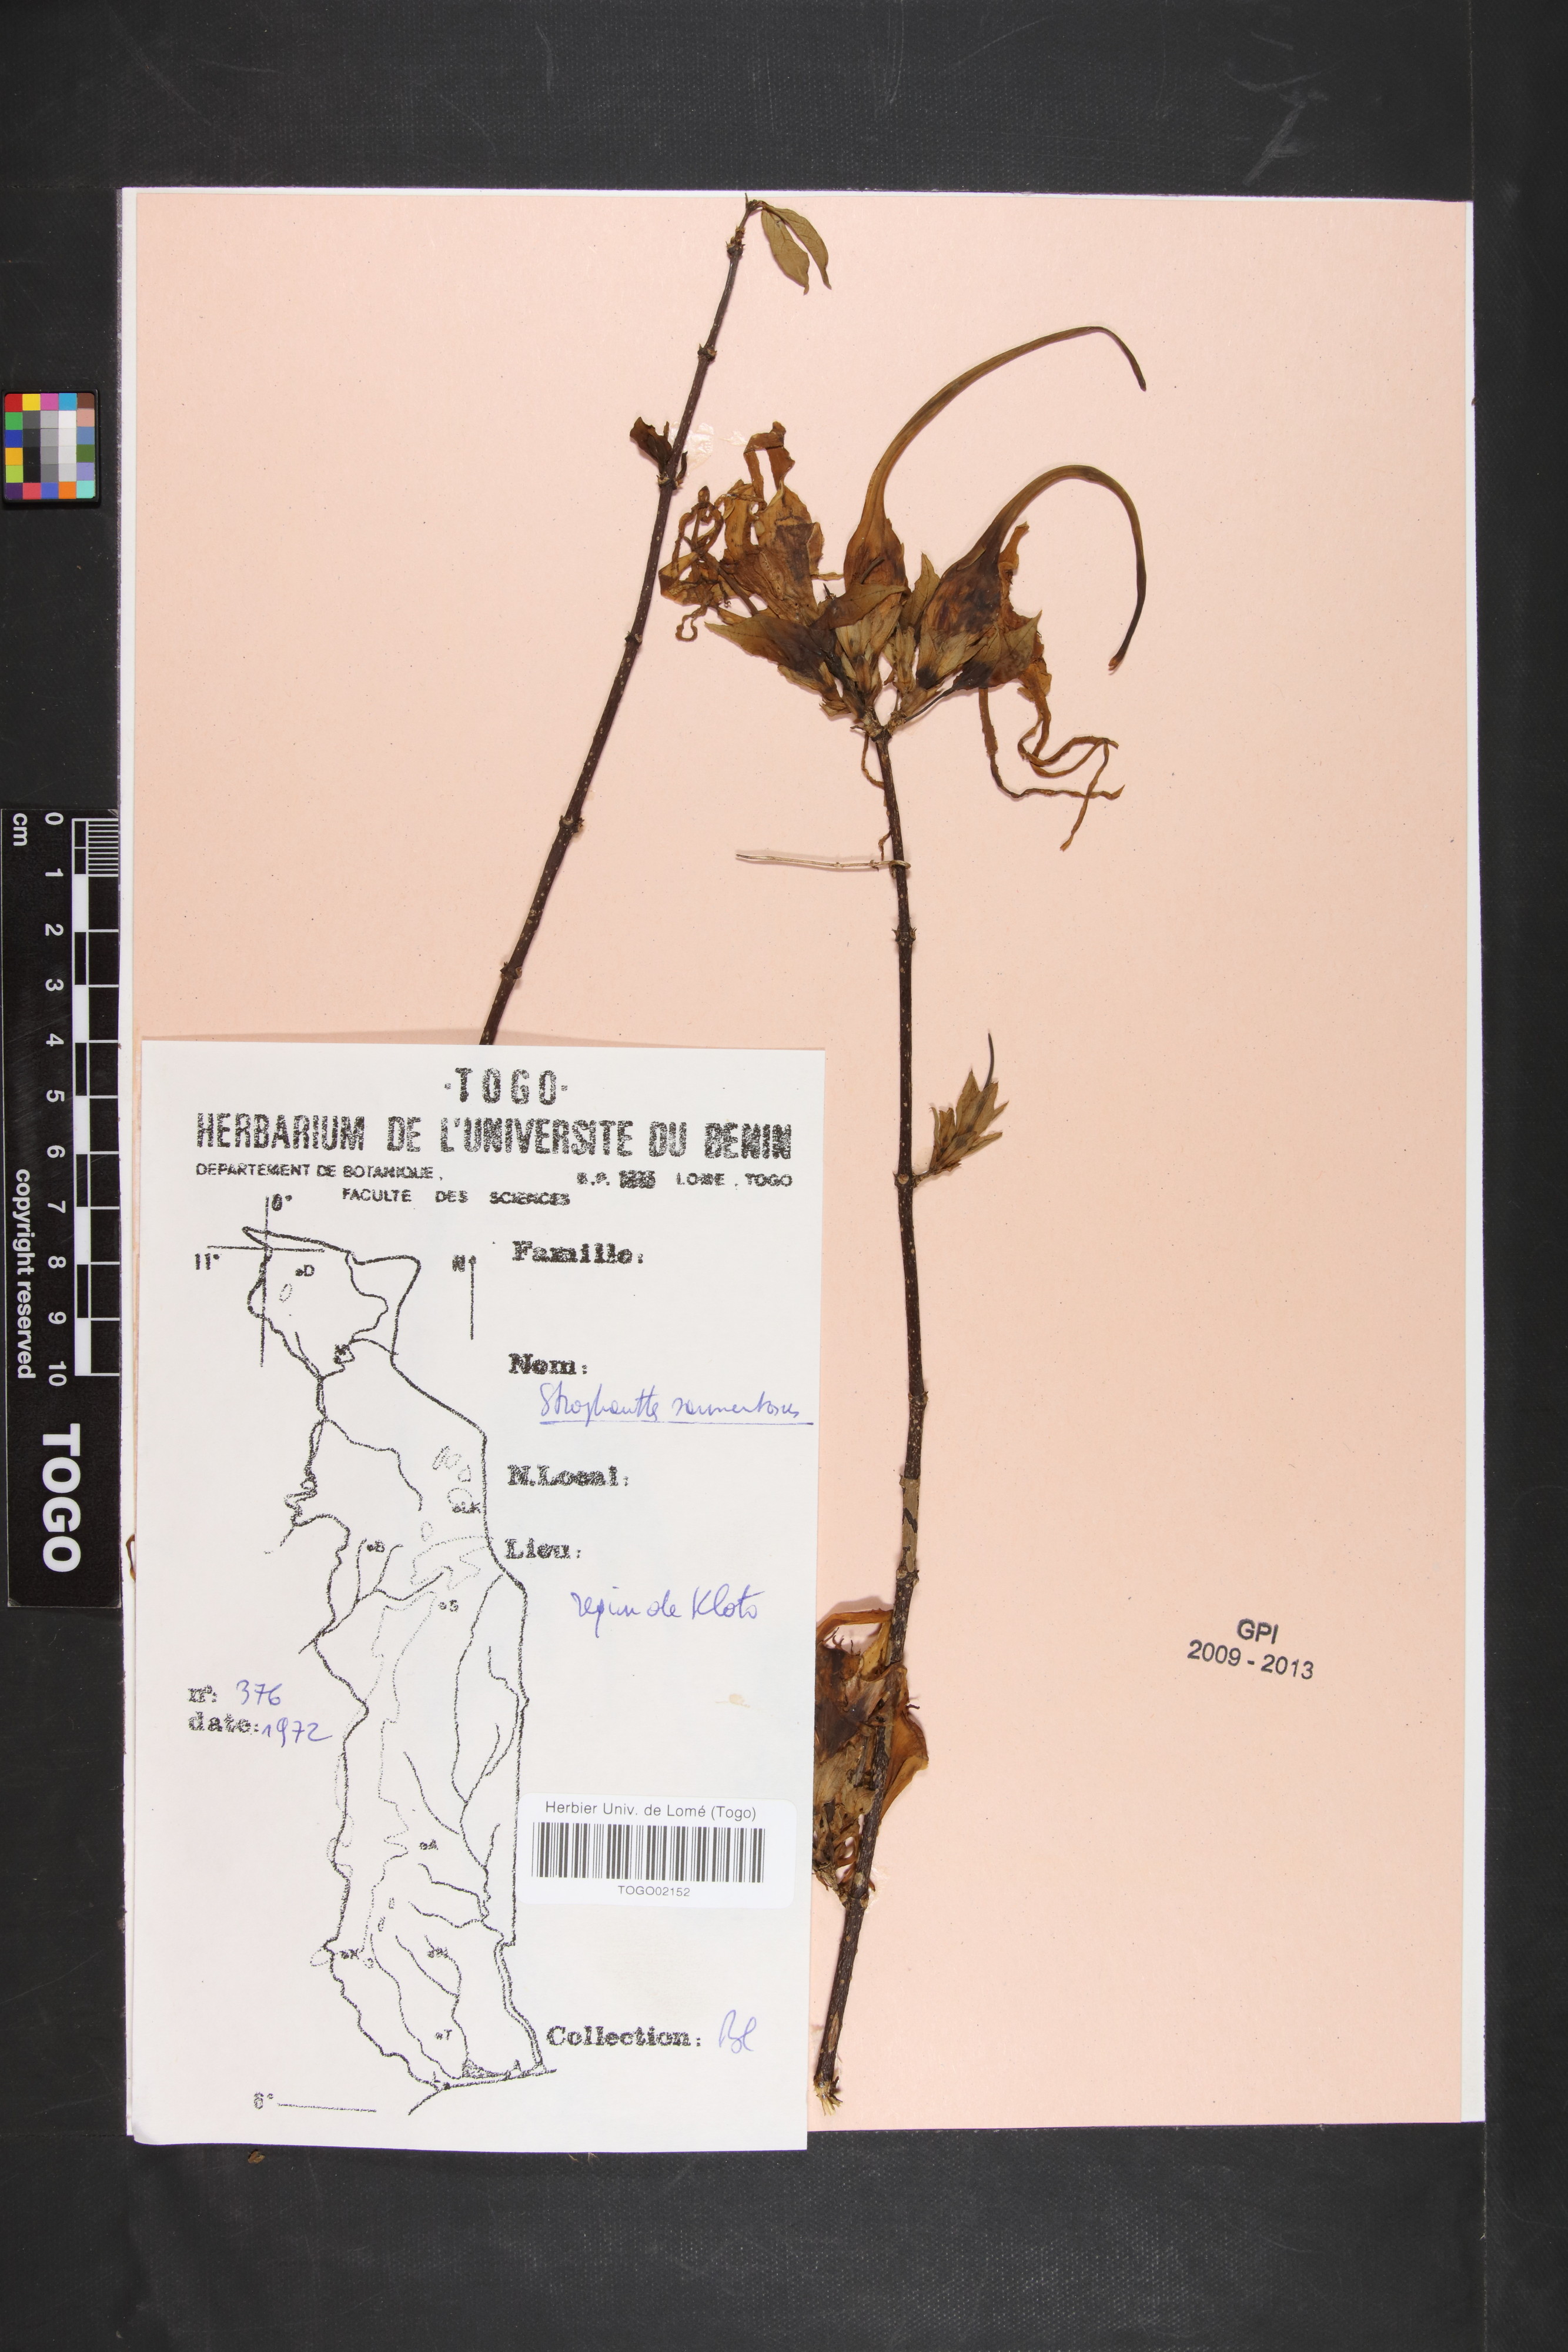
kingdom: Plantae
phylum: Tracheophyta
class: Magnoliopsida
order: Gentianales
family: Apocynaceae
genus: Strophanthus
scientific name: Strophanthus sarmentosus
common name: Poison arrowvine
